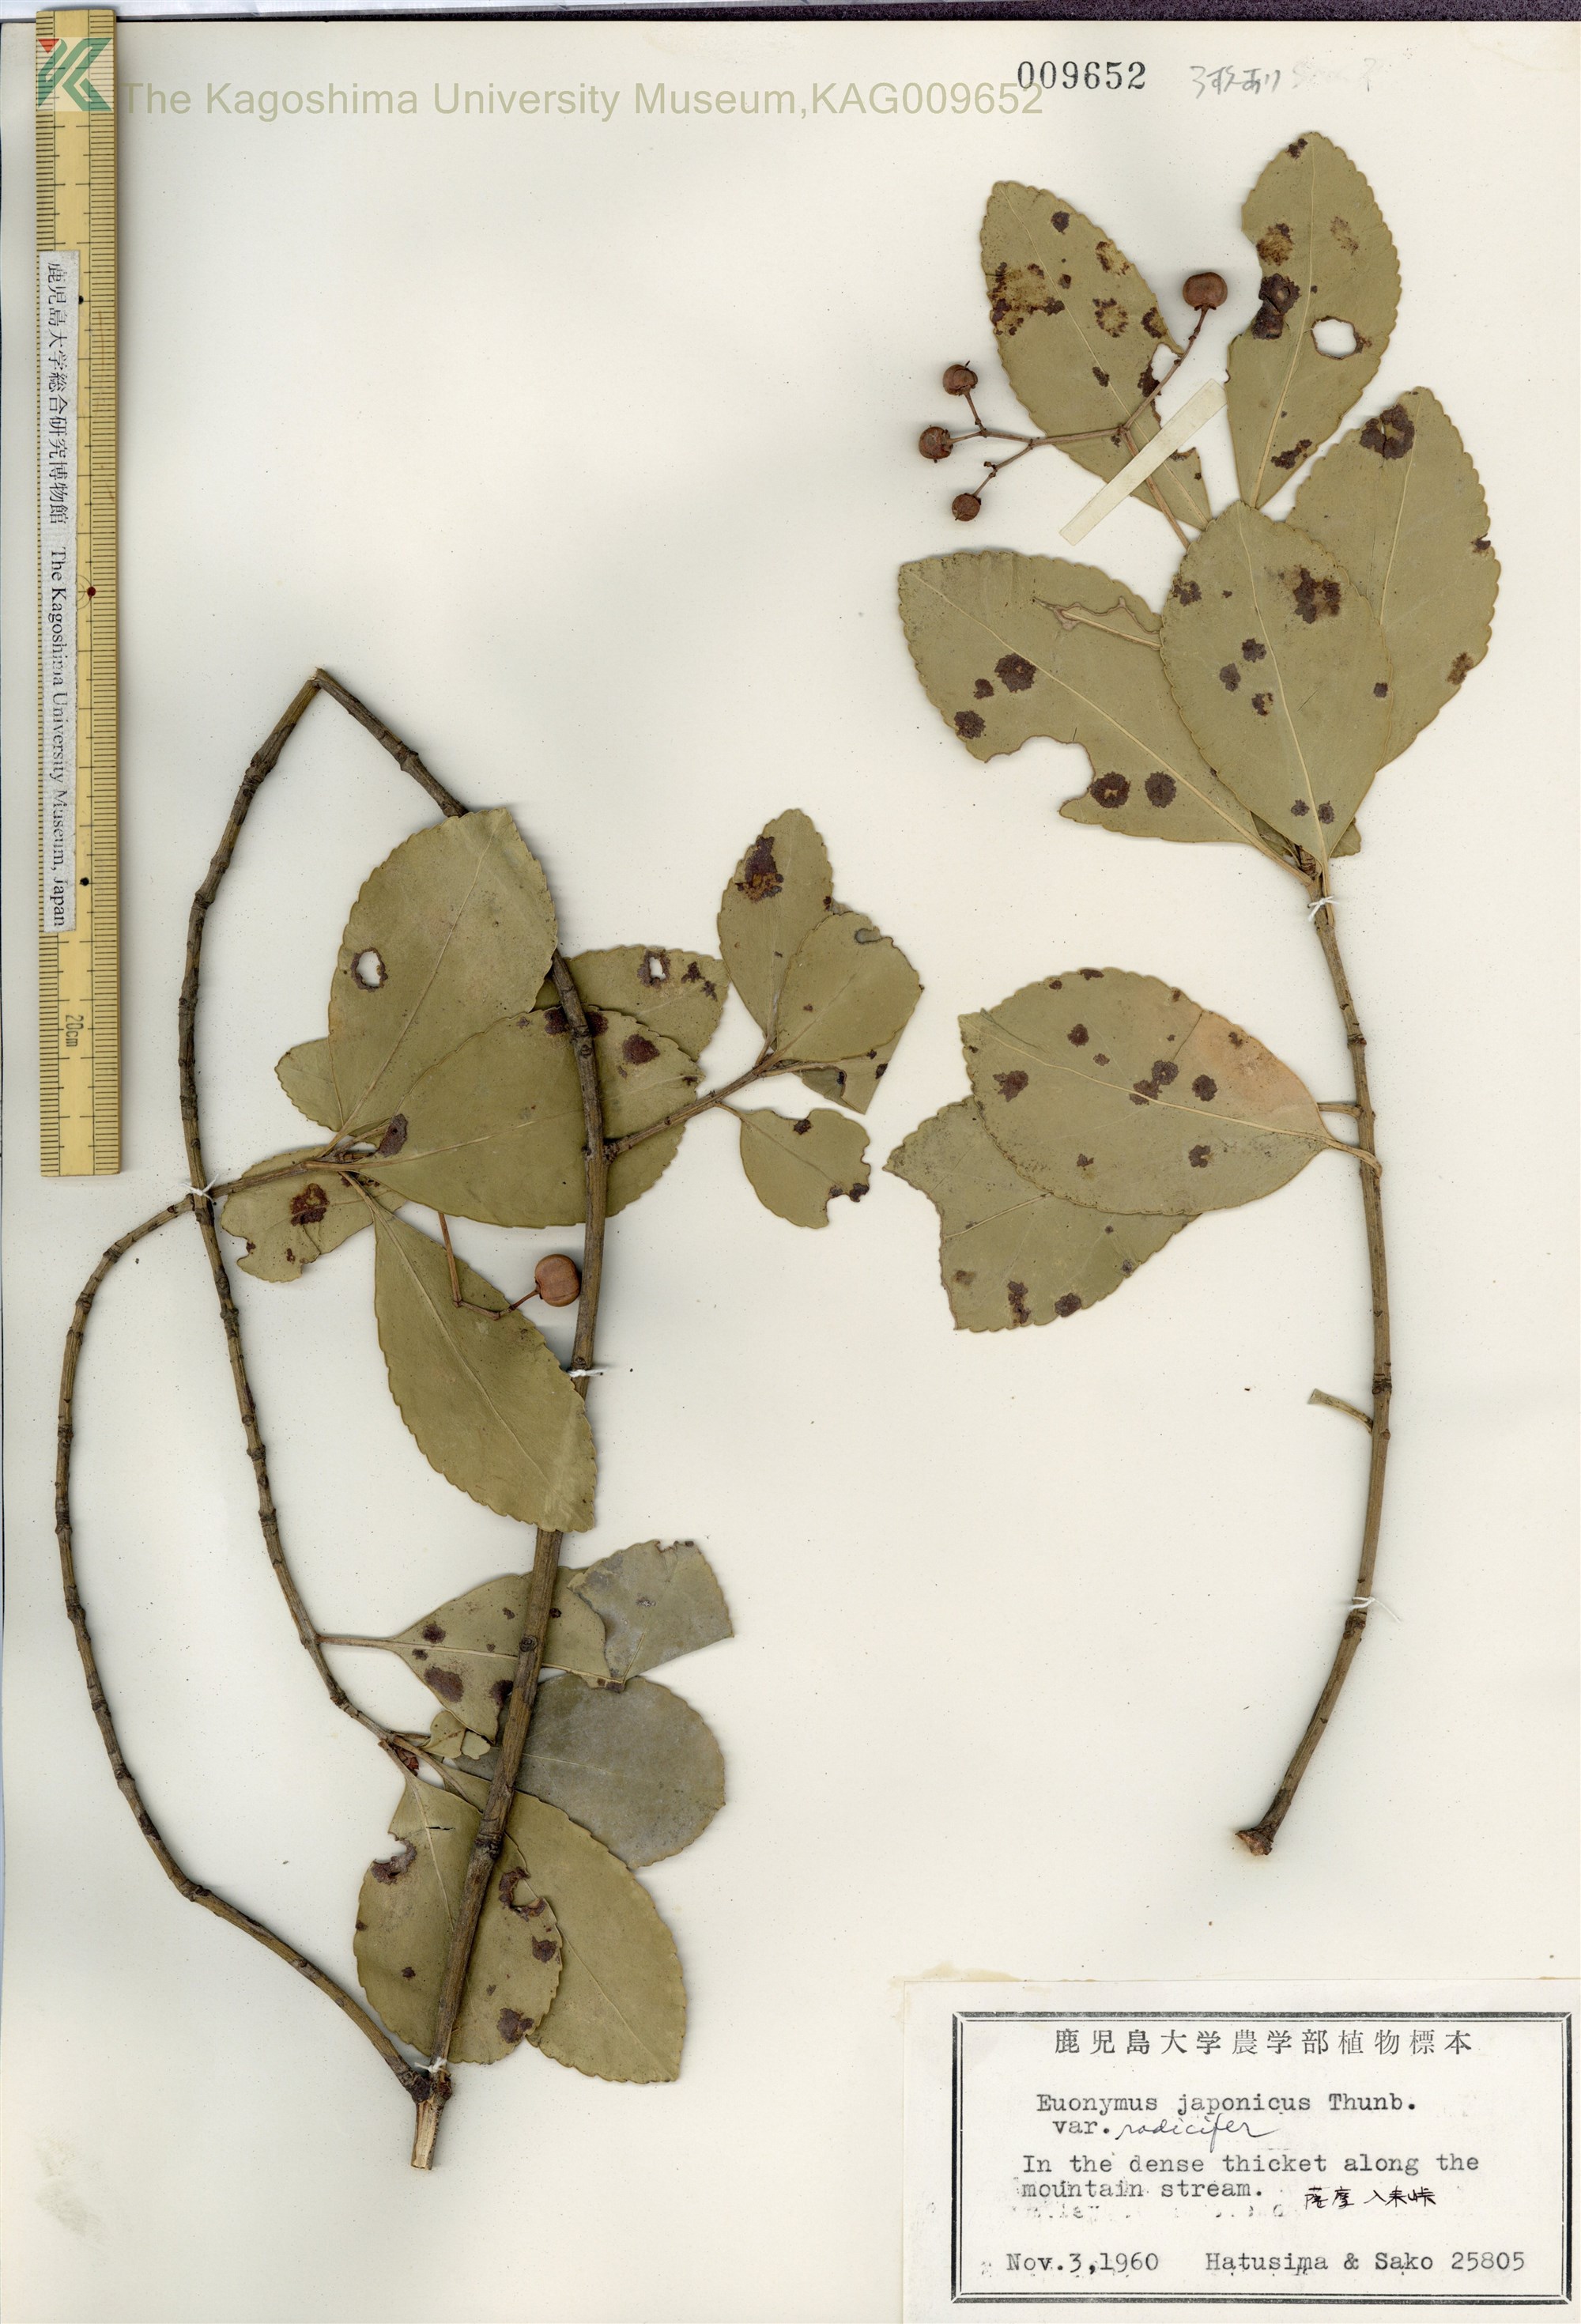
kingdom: Plantae
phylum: Tracheophyta
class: Magnoliopsida
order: Celastrales
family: Celastraceae
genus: Euonymus
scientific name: Euonymus japonicus
